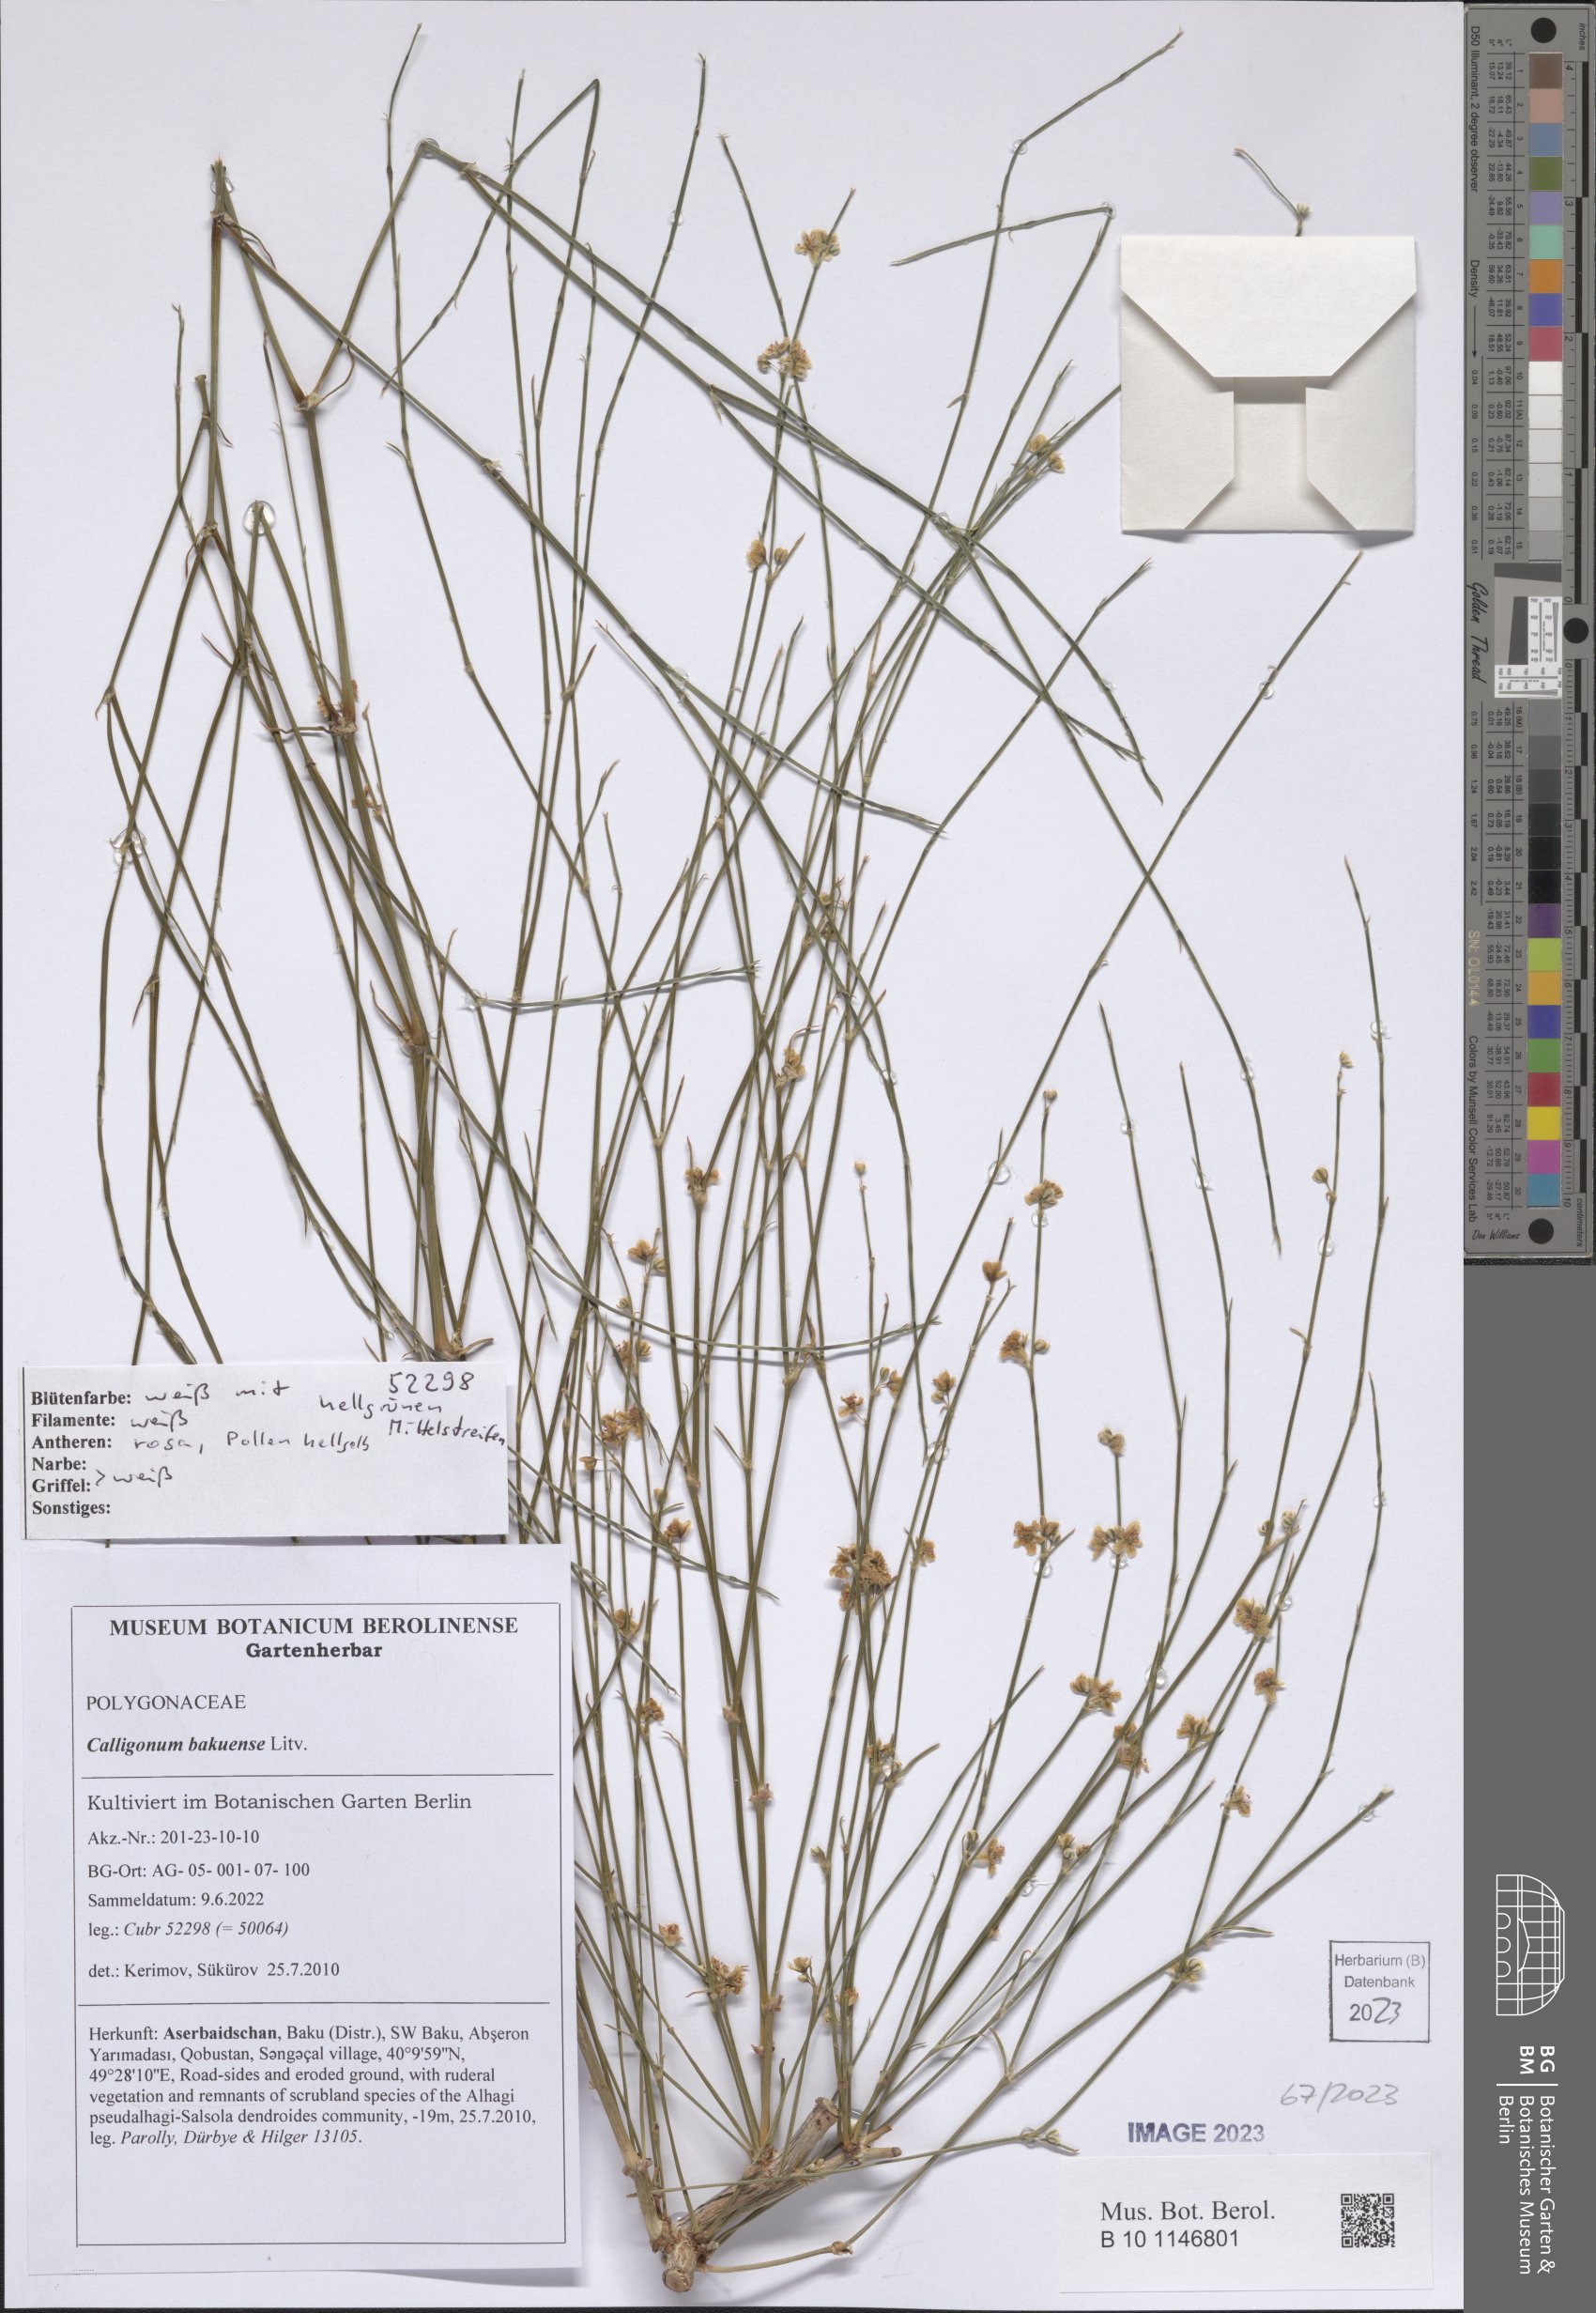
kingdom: Plantae
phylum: Tracheophyta
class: Magnoliopsida
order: Caryophyllales
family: Polygonaceae
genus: Calligonum
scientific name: Calligonum bakuense
